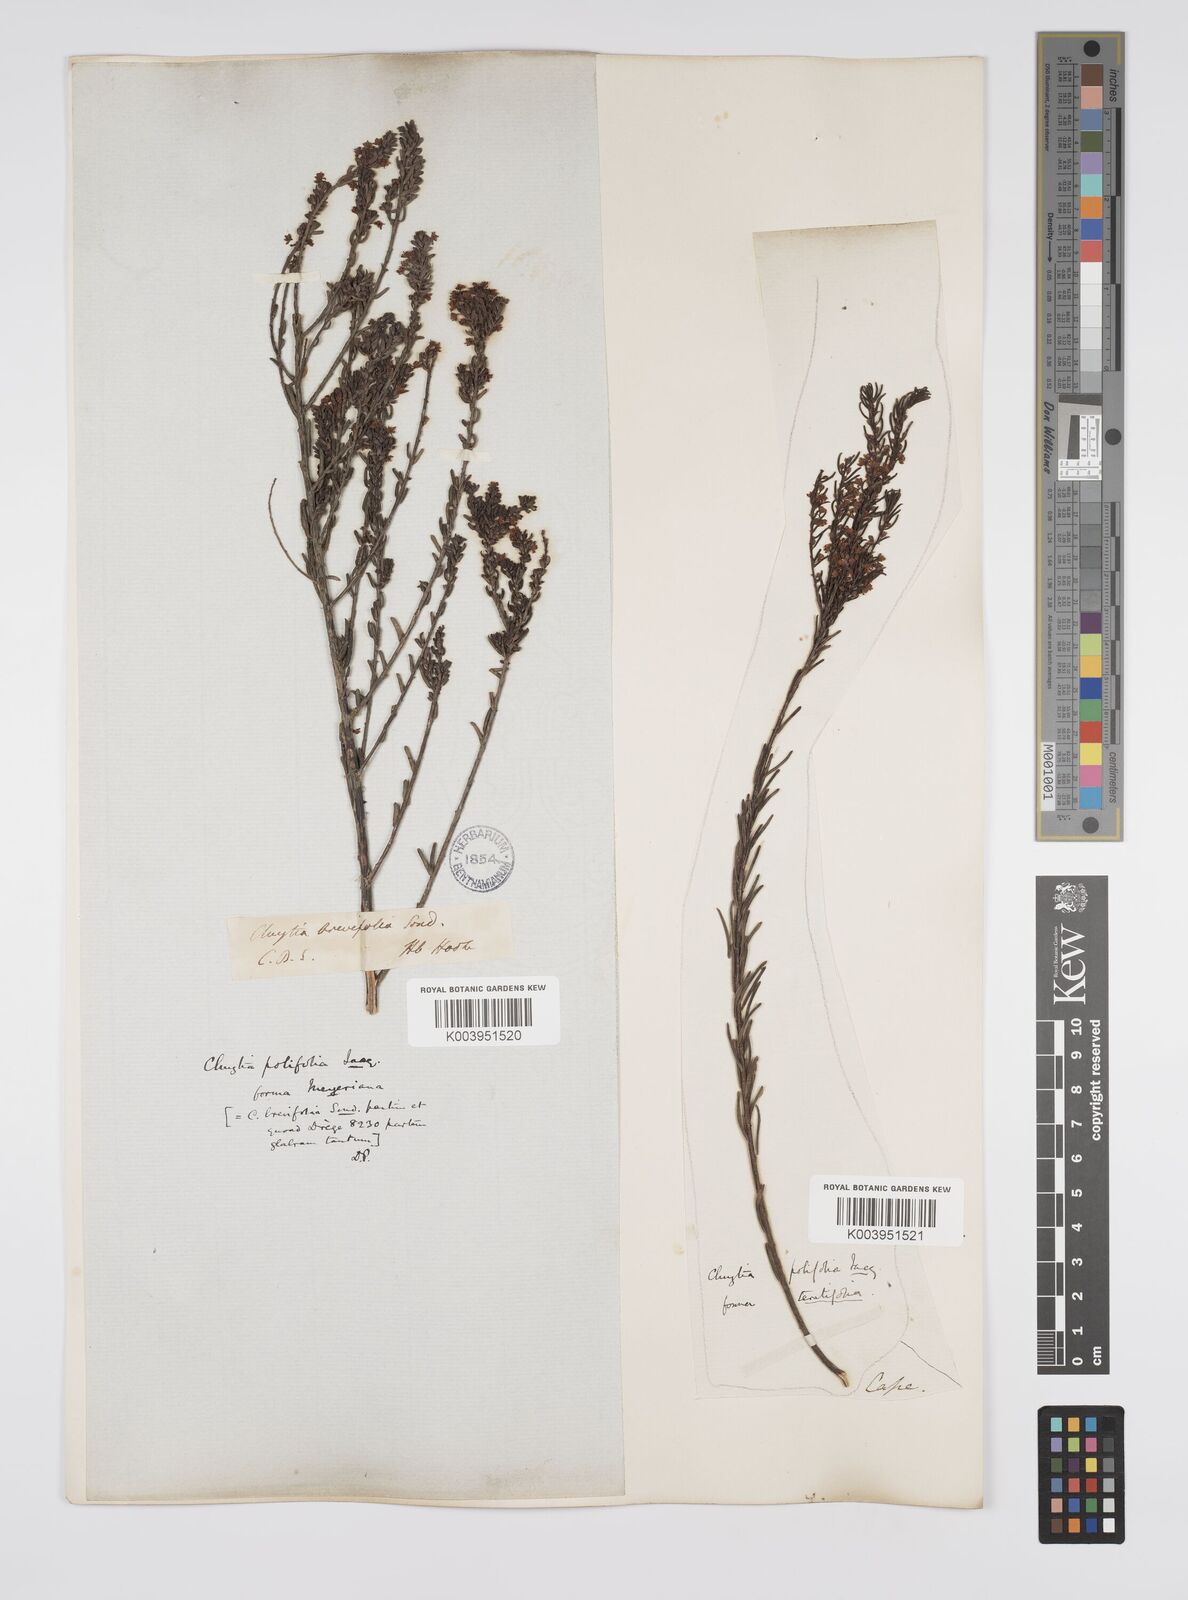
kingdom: Plantae
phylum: Tracheophyta
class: Magnoliopsida
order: Malpighiales
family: Peraceae
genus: Clutia
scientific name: Clutia
